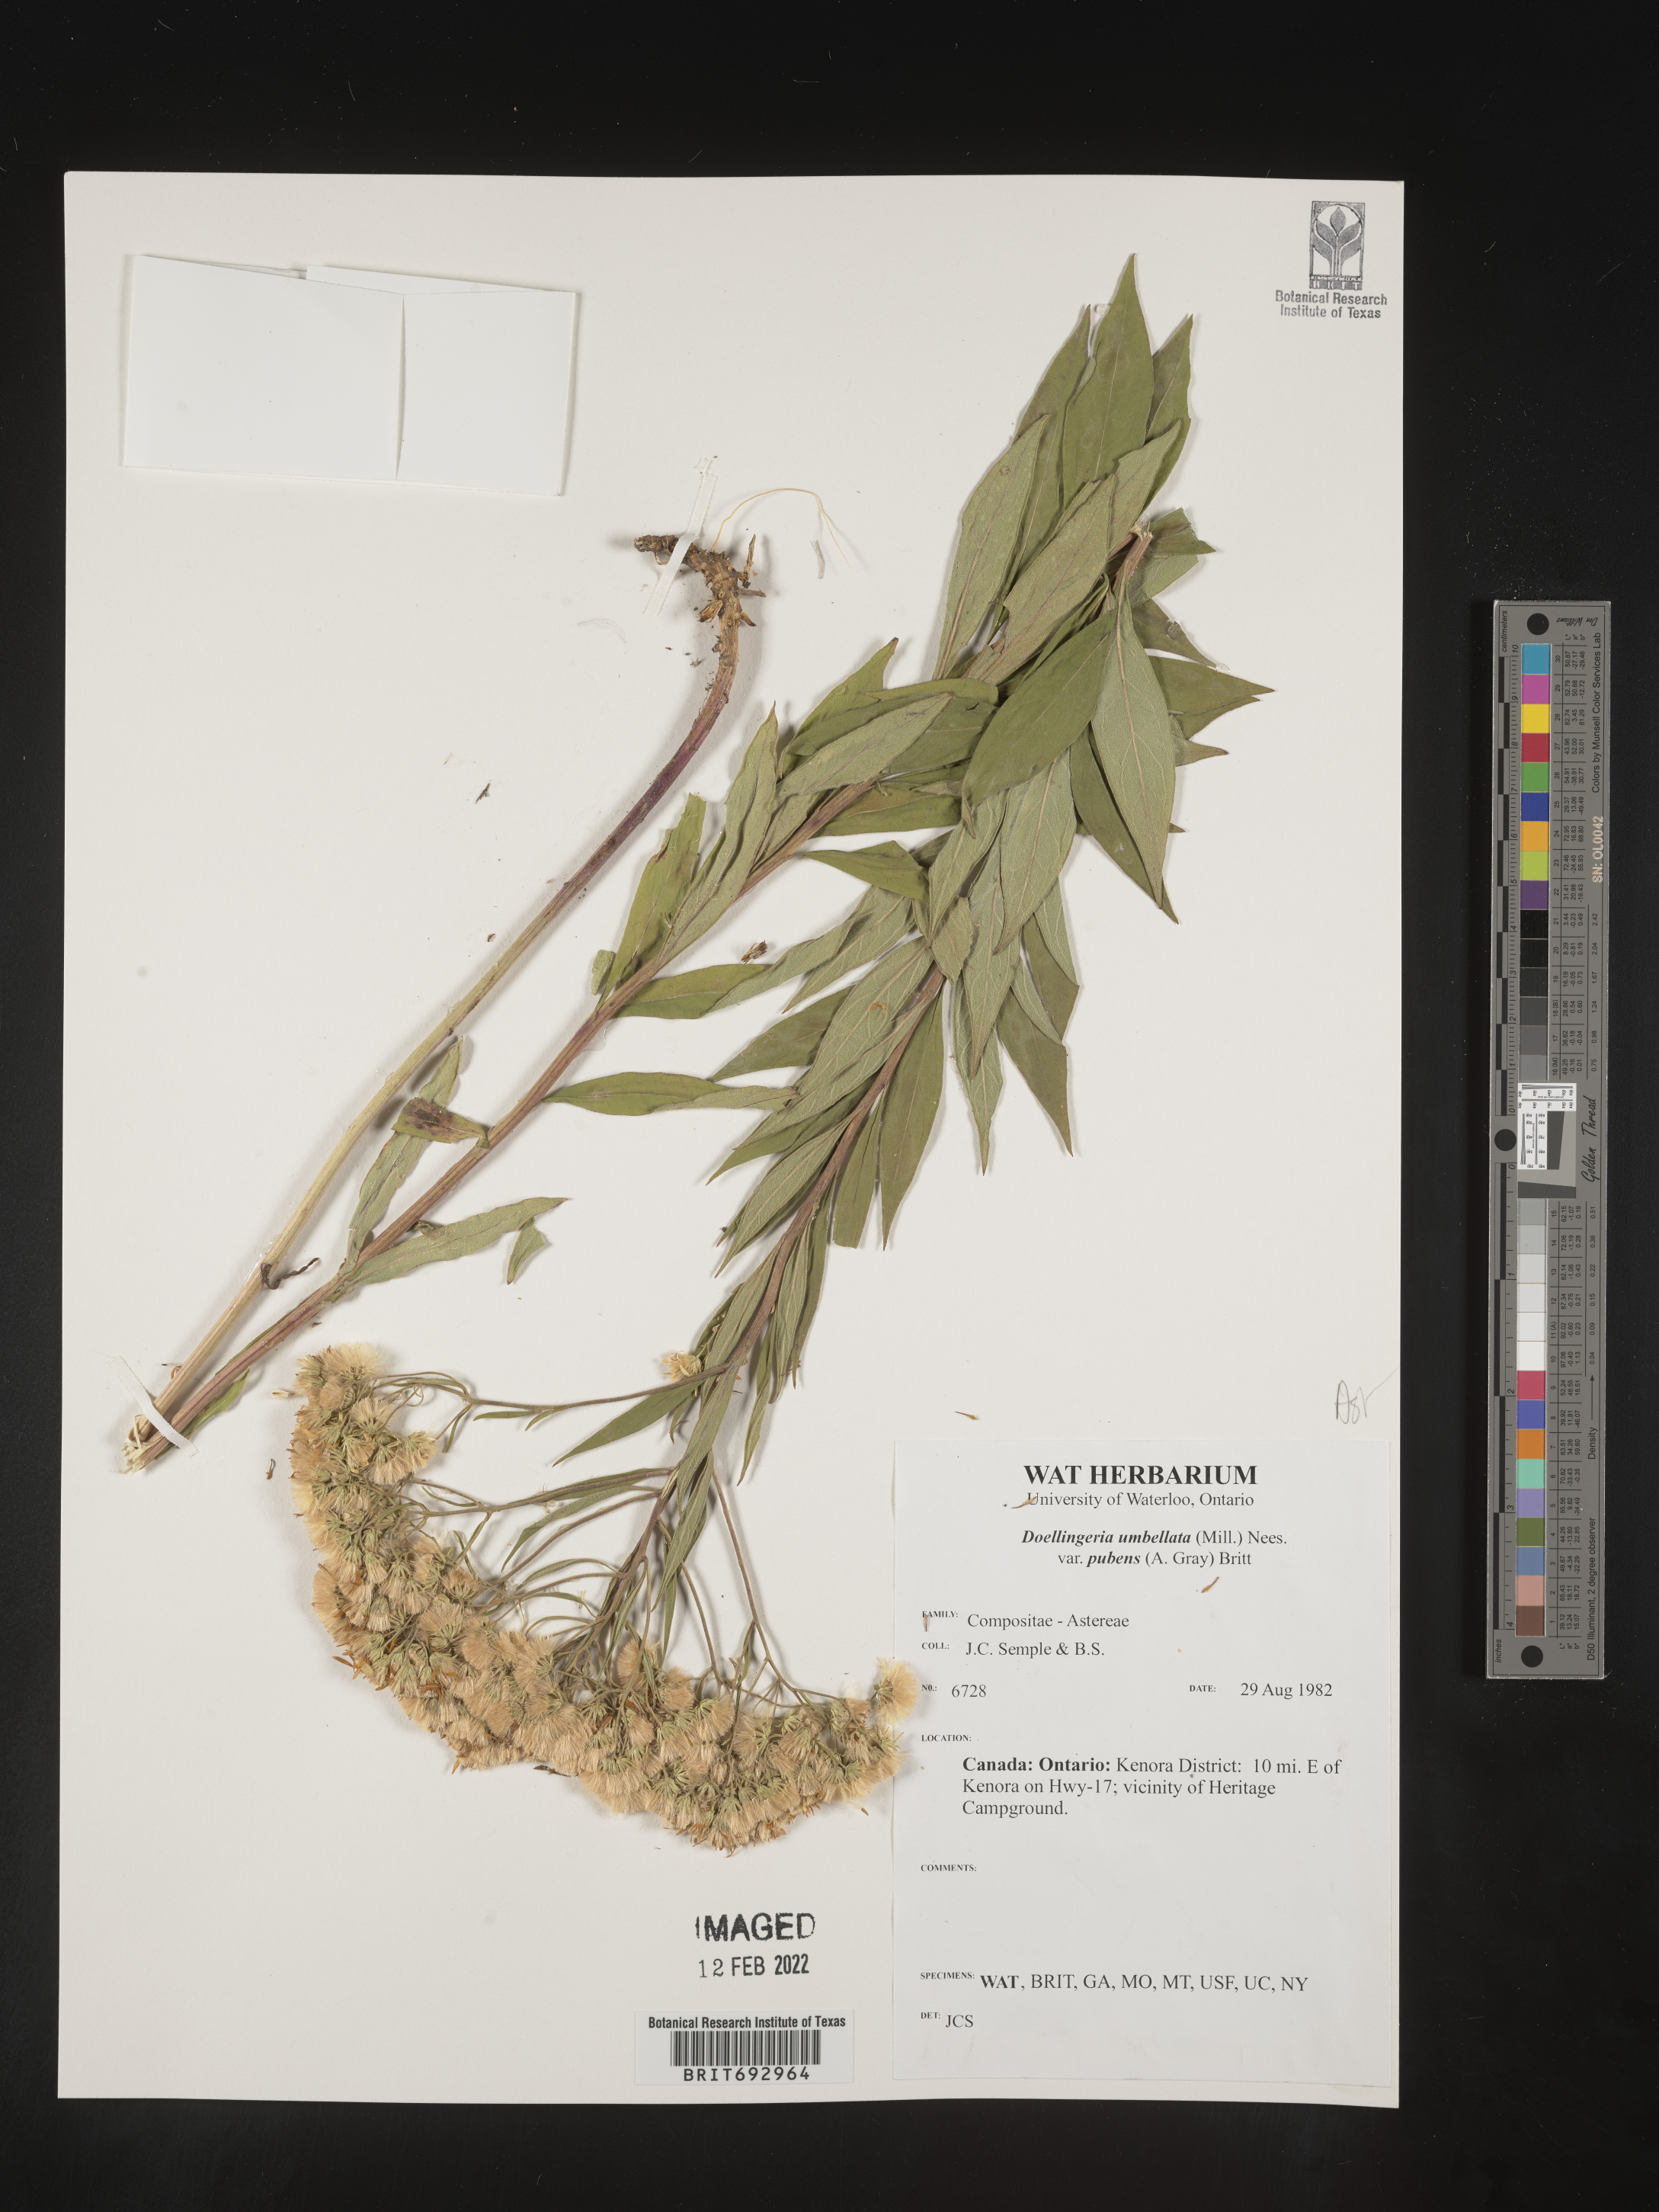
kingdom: Plantae
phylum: Tracheophyta
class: Magnoliopsida
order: Asterales
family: Asteraceae
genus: Doellingeria
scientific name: Doellingeria umbellata
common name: Flat-top white aster
